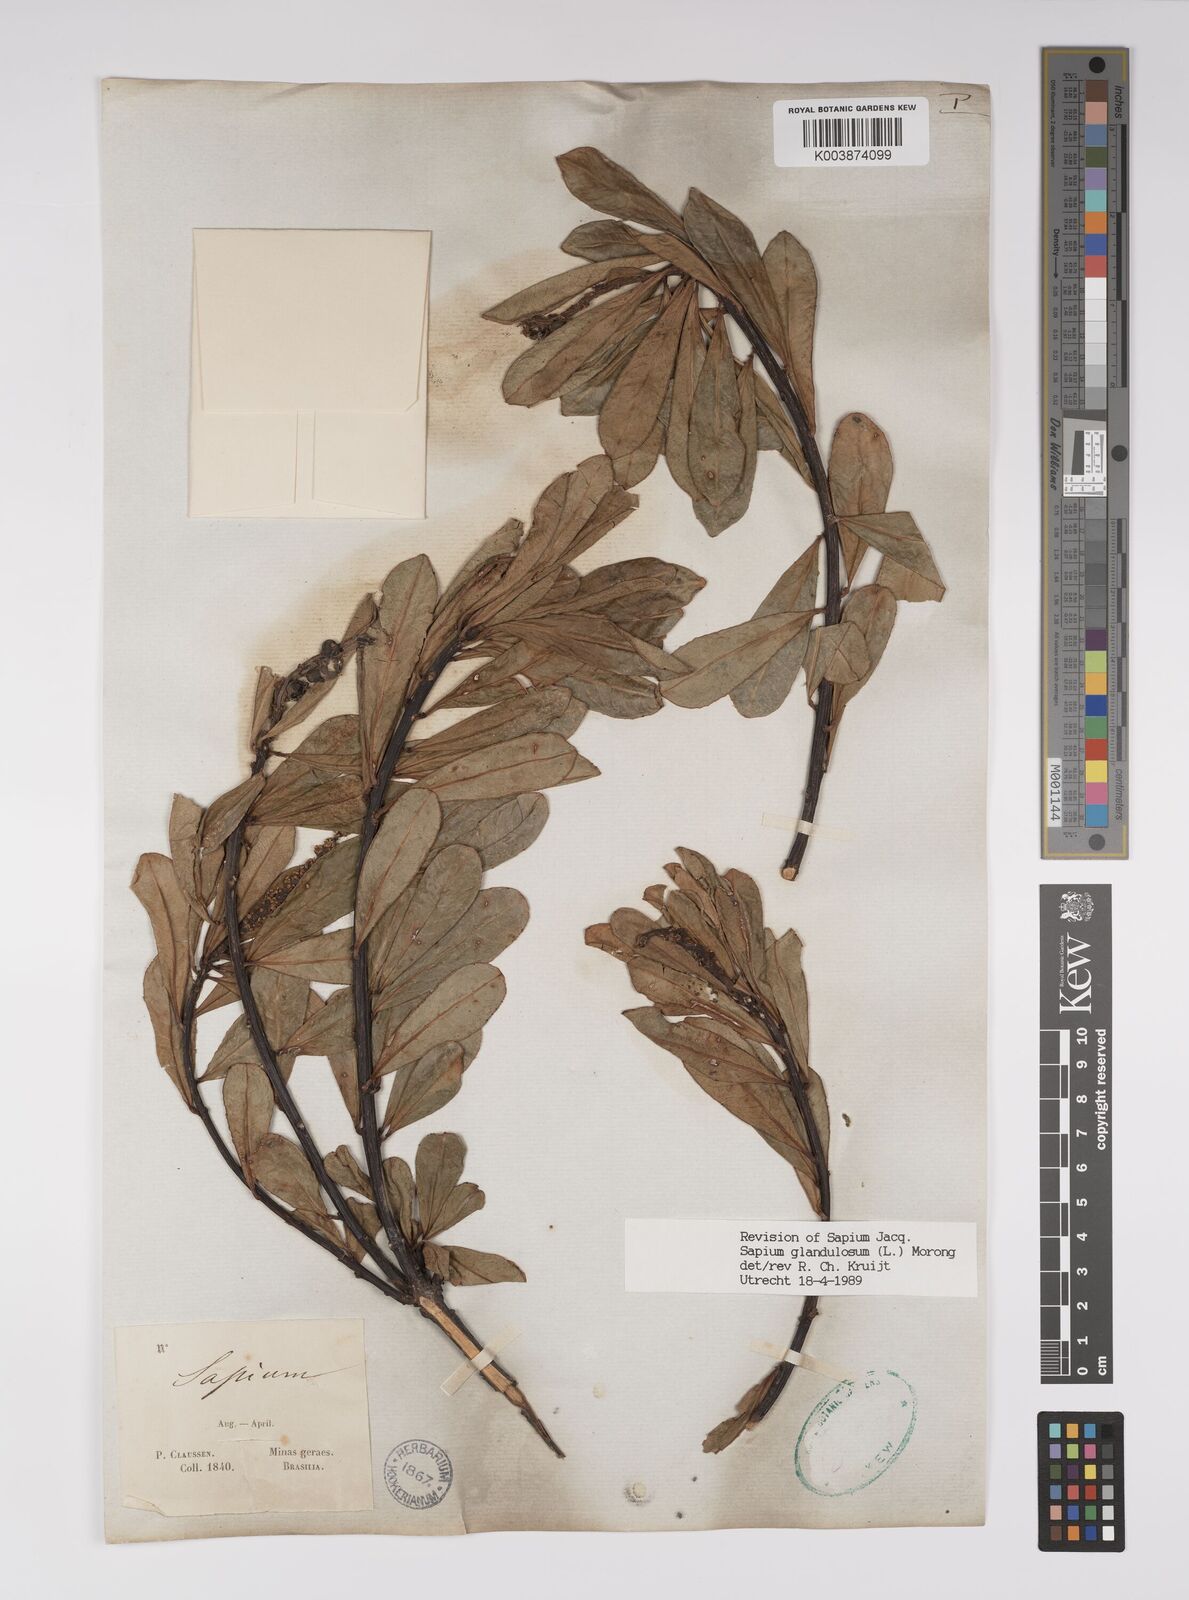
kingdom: Plantae
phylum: Tracheophyta
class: Magnoliopsida
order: Malpighiales
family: Euphorbiaceae
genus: Sapium
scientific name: Sapium glandulosum
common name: Milktree
